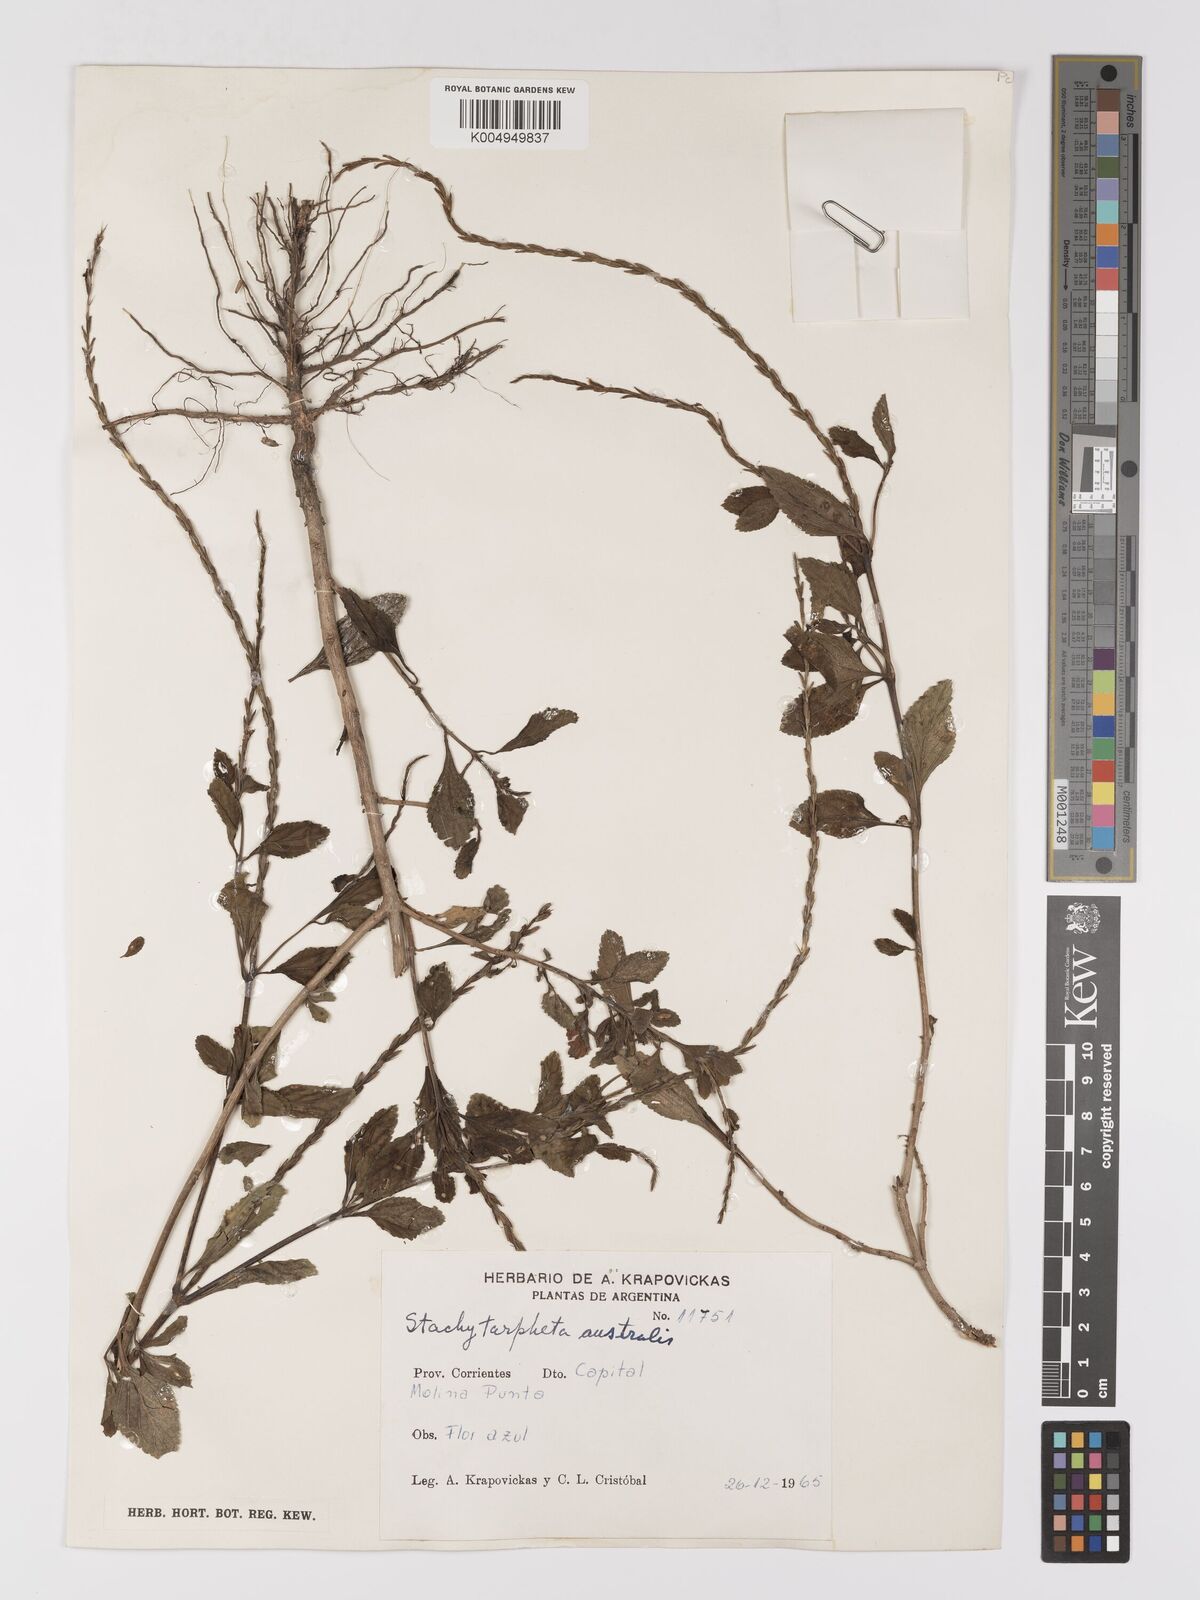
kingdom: Plantae
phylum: Tracheophyta
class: Magnoliopsida
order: Lamiales
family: Verbenaceae
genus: Stachytarpheta
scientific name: Stachytarpheta cayennensis
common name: Cayenne porterweed
